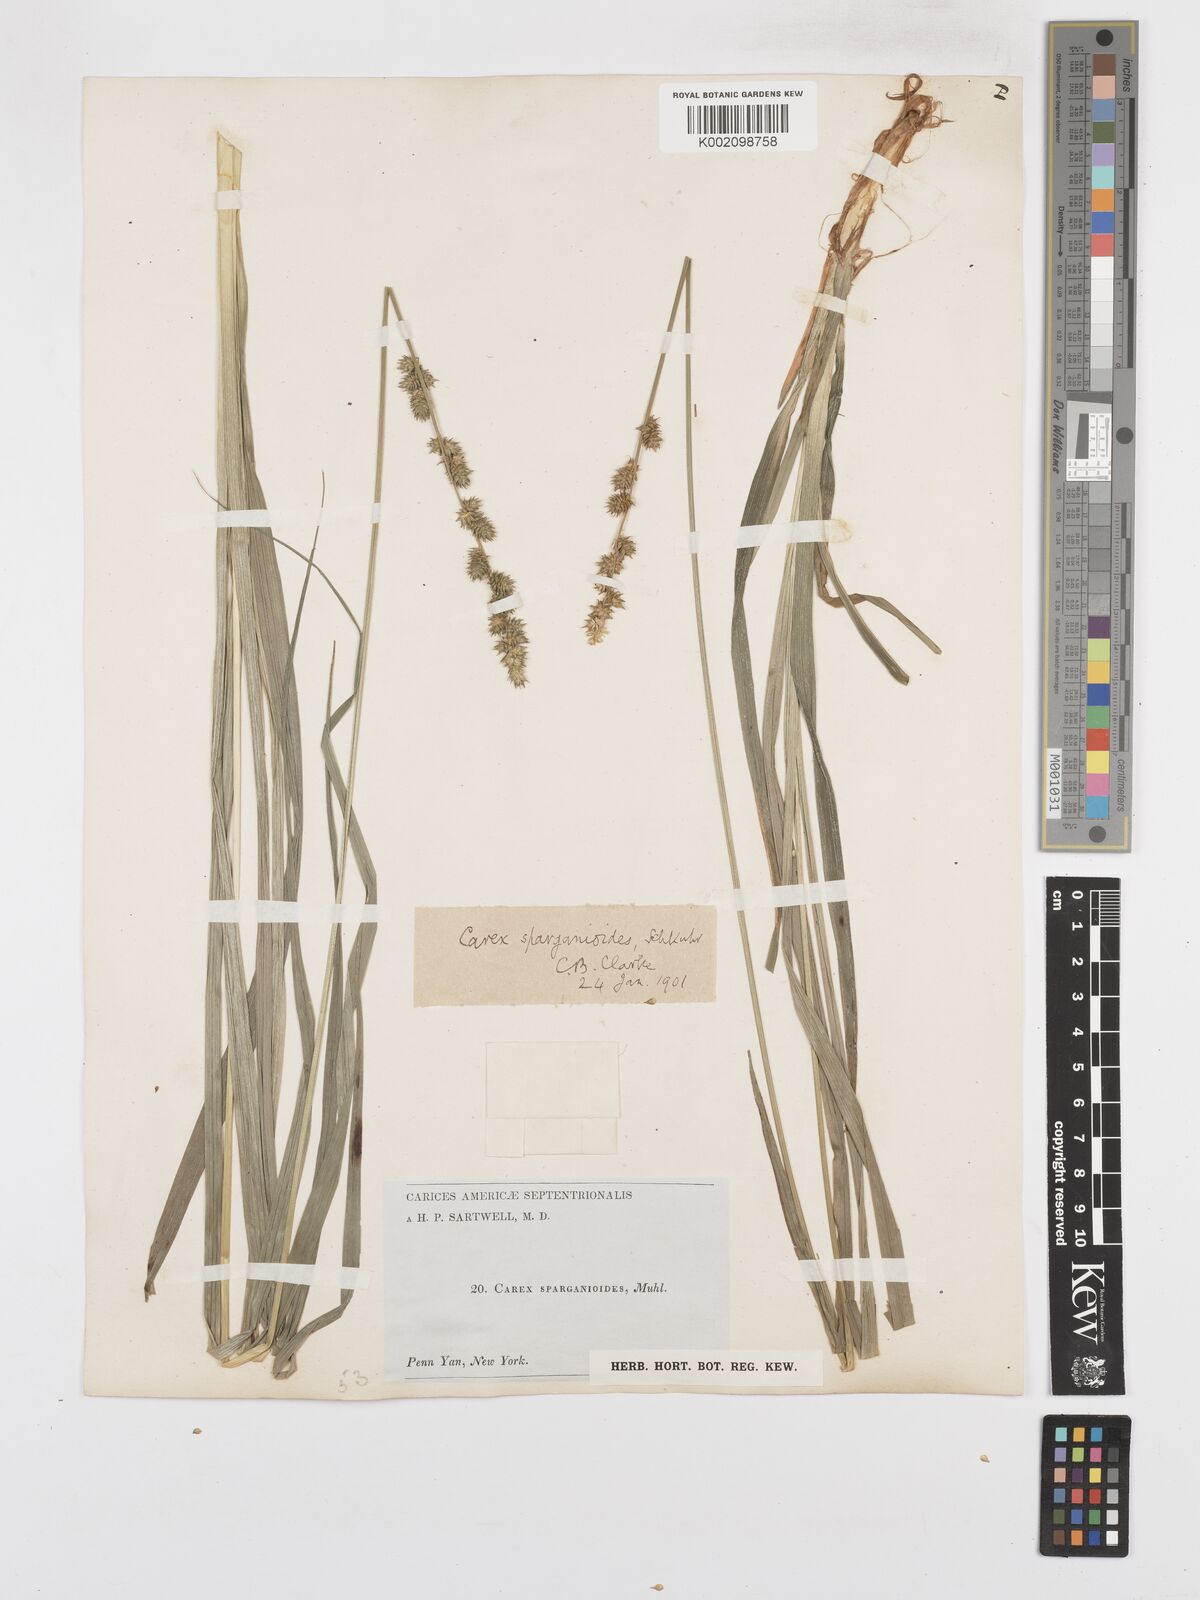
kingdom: Plantae
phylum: Tracheophyta
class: Liliopsida
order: Poales
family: Cyperaceae
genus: Carex
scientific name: Carex sparganioides
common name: Burreed sedge
